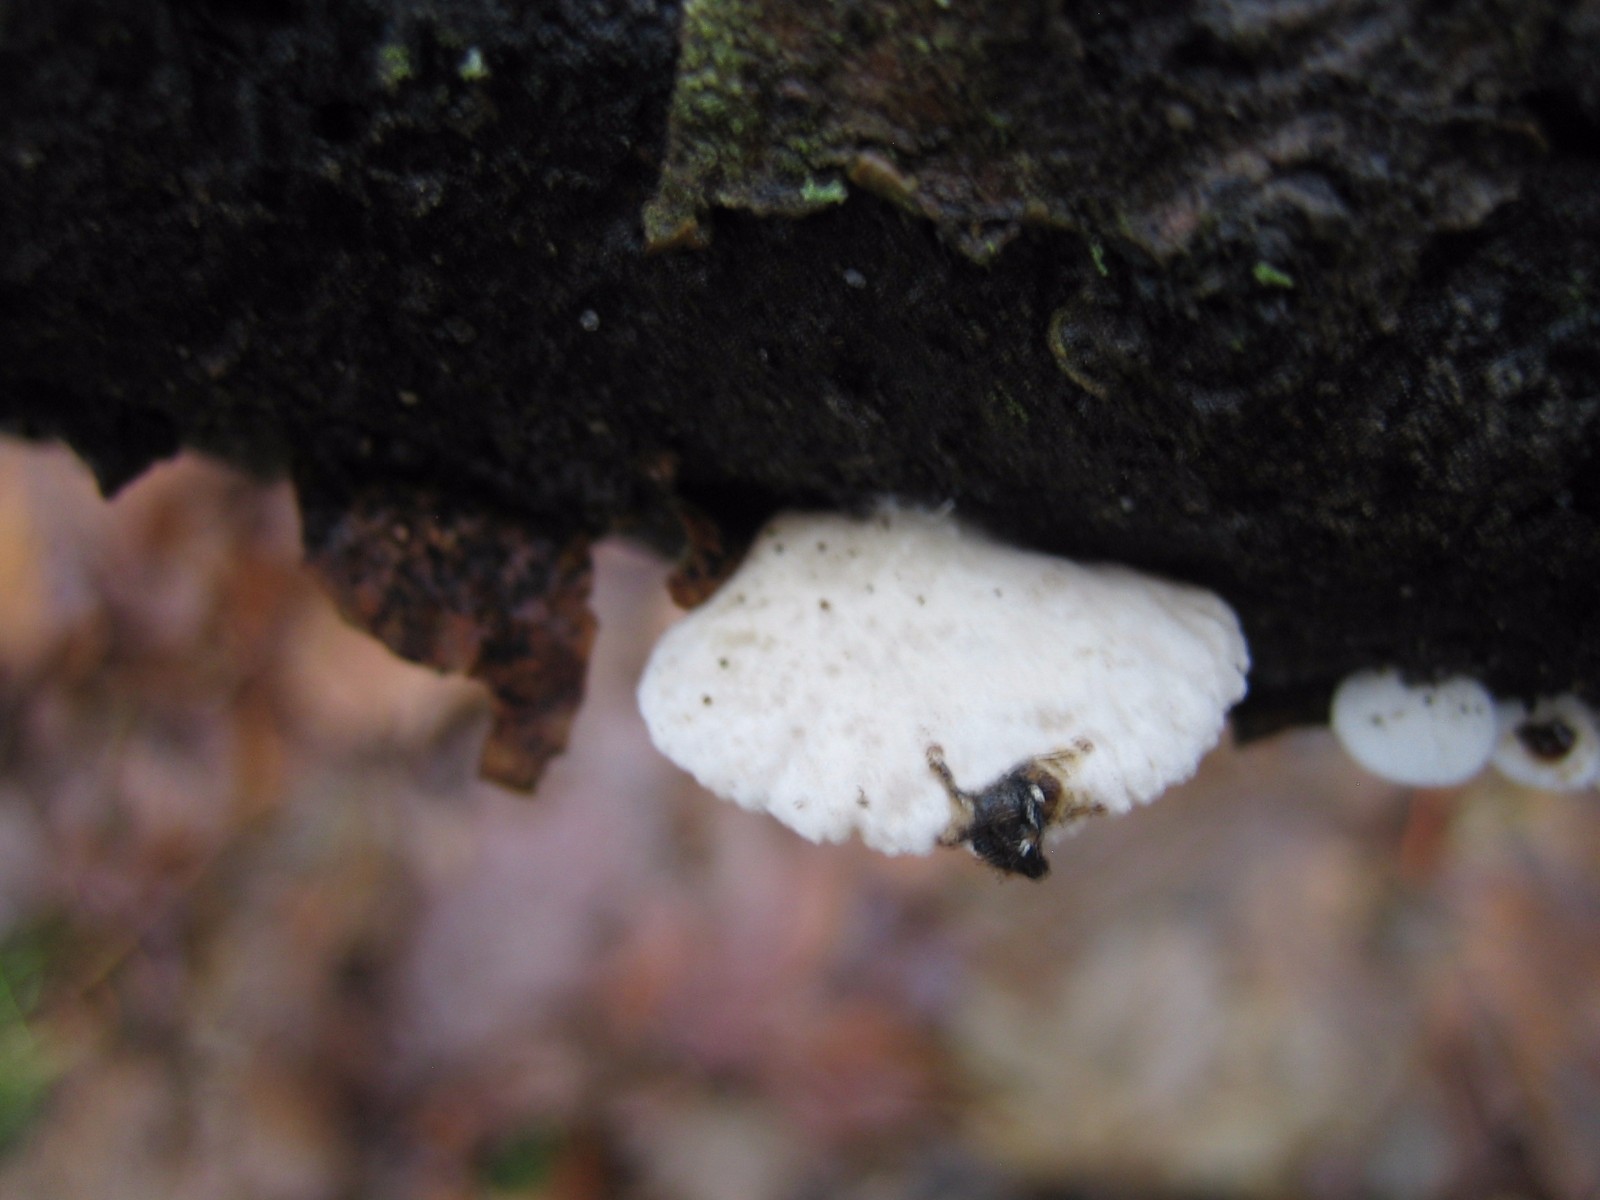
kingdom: Fungi
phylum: Basidiomycota
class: Agaricomycetes
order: Agaricales
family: Crepidotaceae
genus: Crepidotus
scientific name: Crepidotus
